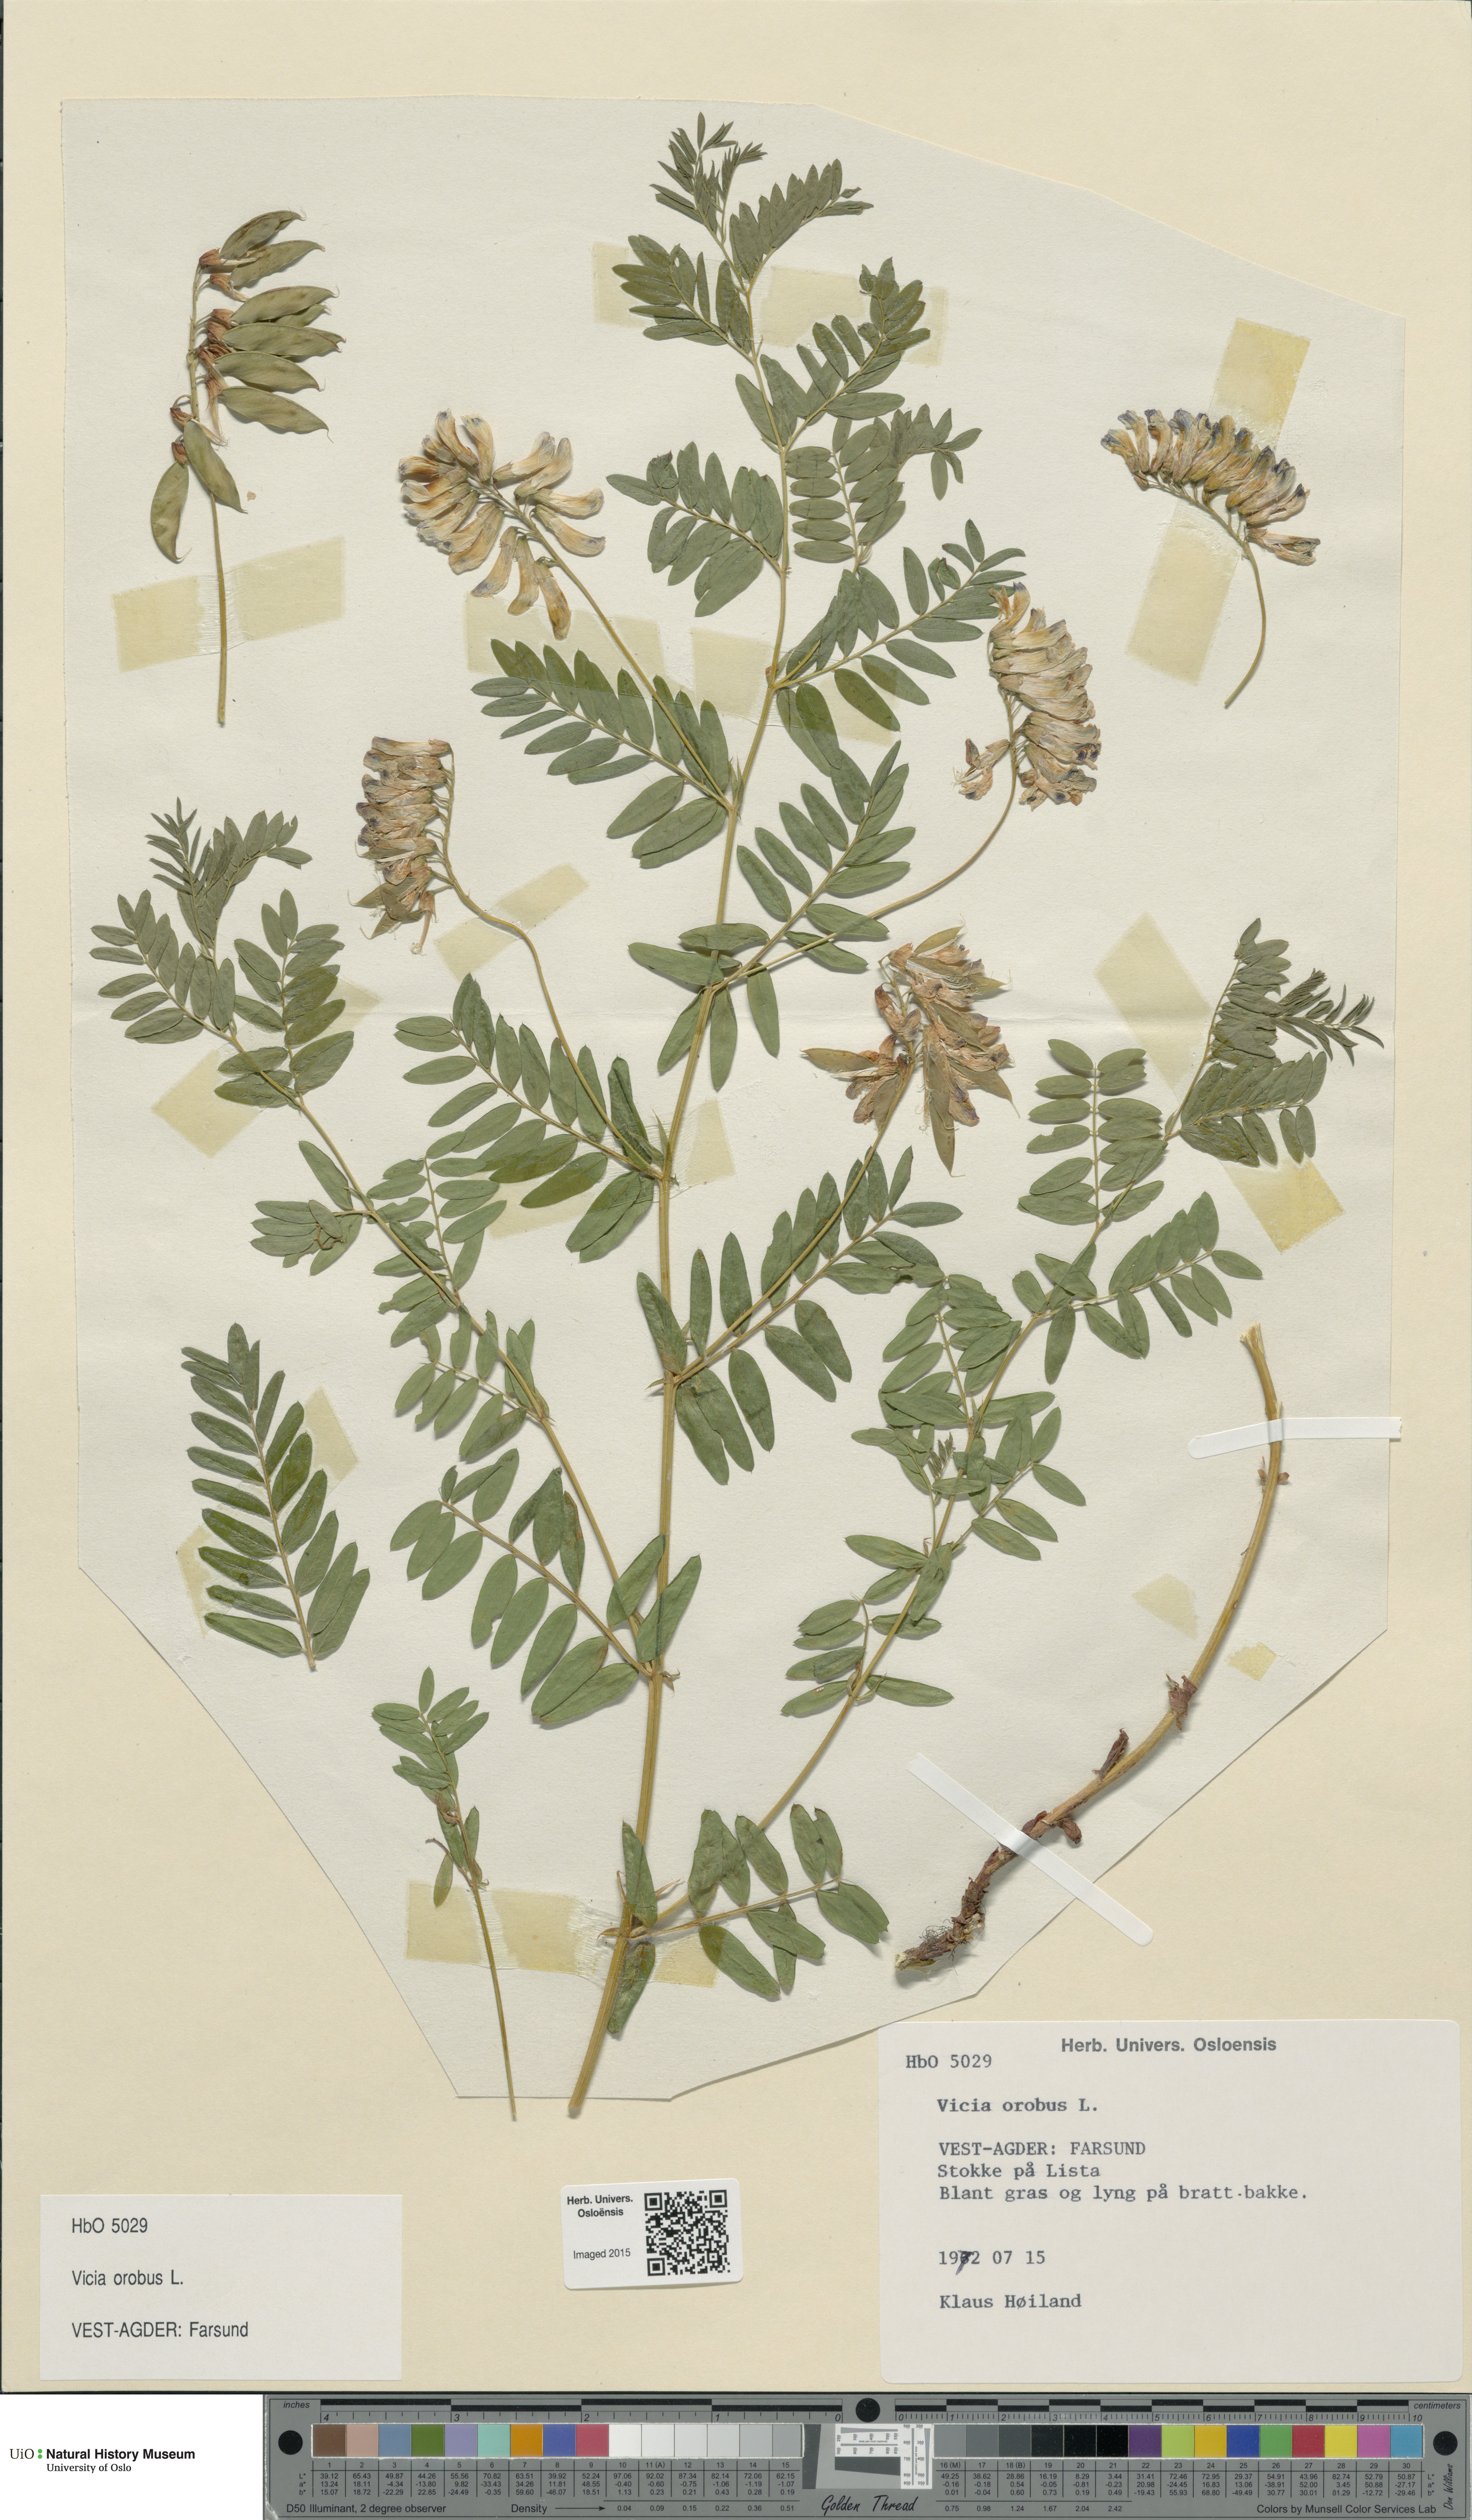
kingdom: Plantae
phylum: Tracheophyta
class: Magnoliopsida
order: Fabales
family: Fabaceae
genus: Vicia
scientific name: Vicia orobus
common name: Wood bitter-vetch
